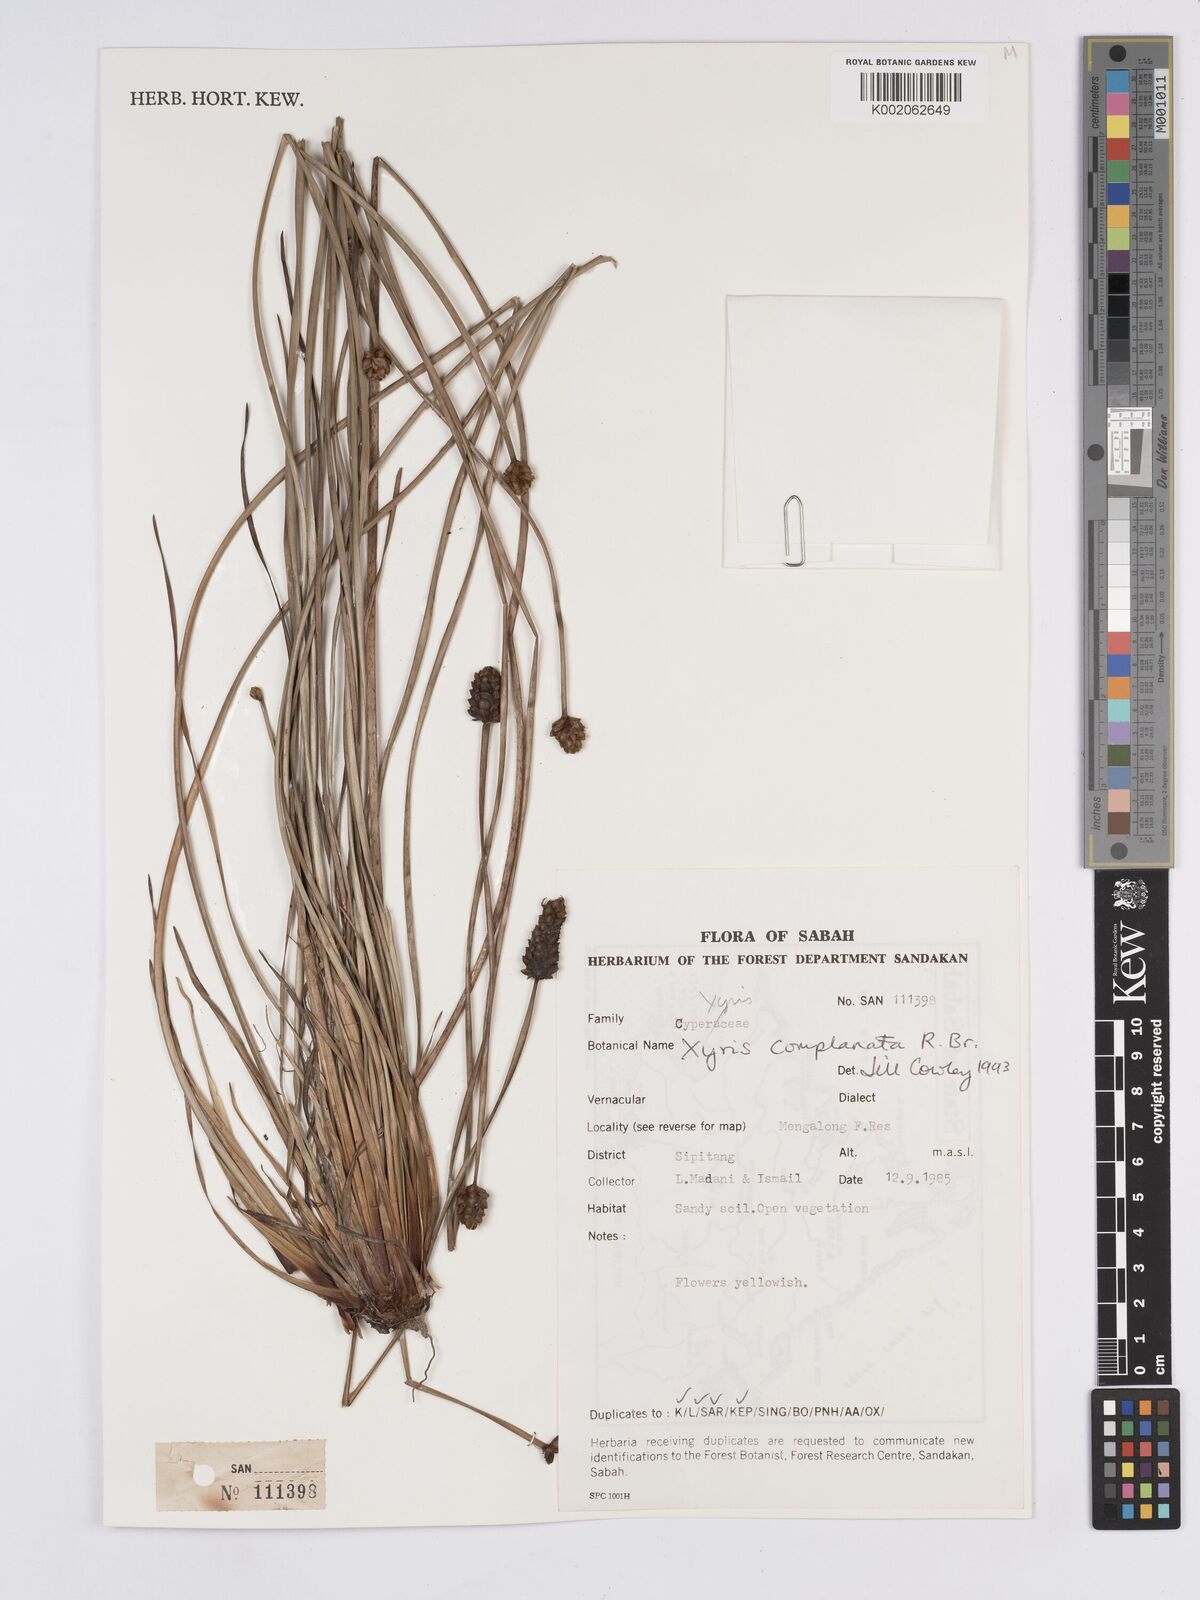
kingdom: Plantae
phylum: Tracheophyta
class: Liliopsida
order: Poales
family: Xyridaceae
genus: Xyris
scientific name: Xyris complanata
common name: Hawai'i yelloweyed grass
